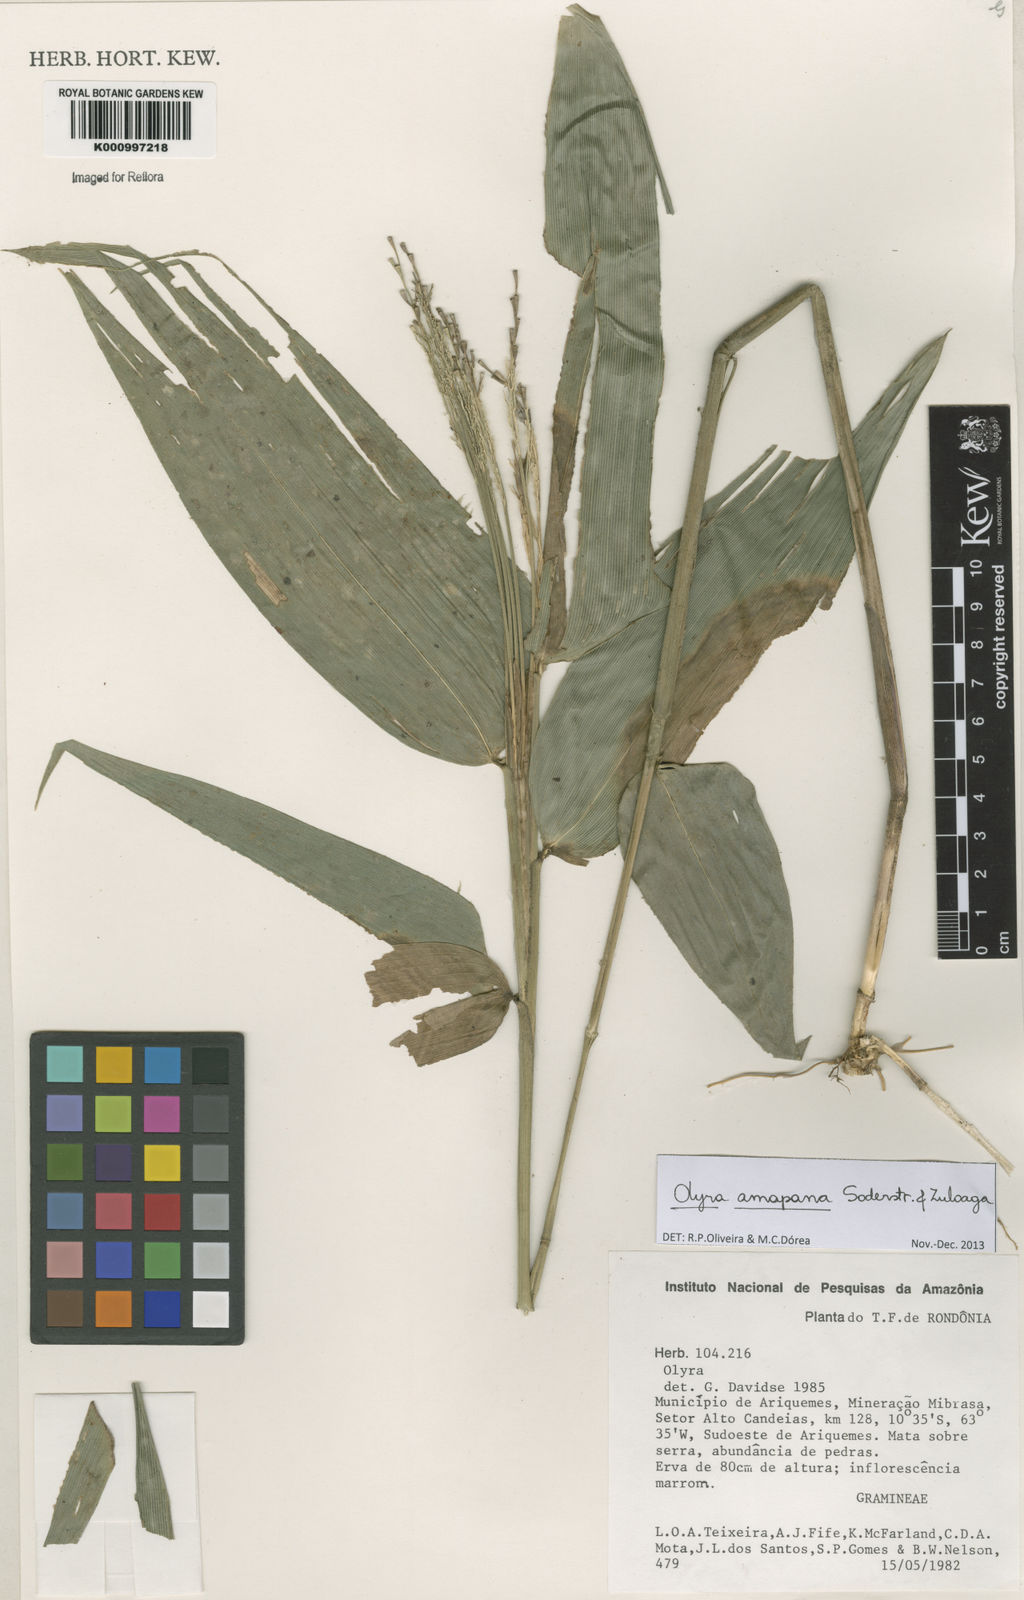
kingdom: Plantae
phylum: Tracheophyta
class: Liliopsida
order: Poales
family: Poaceae
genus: Olyra
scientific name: Olyra amapana
